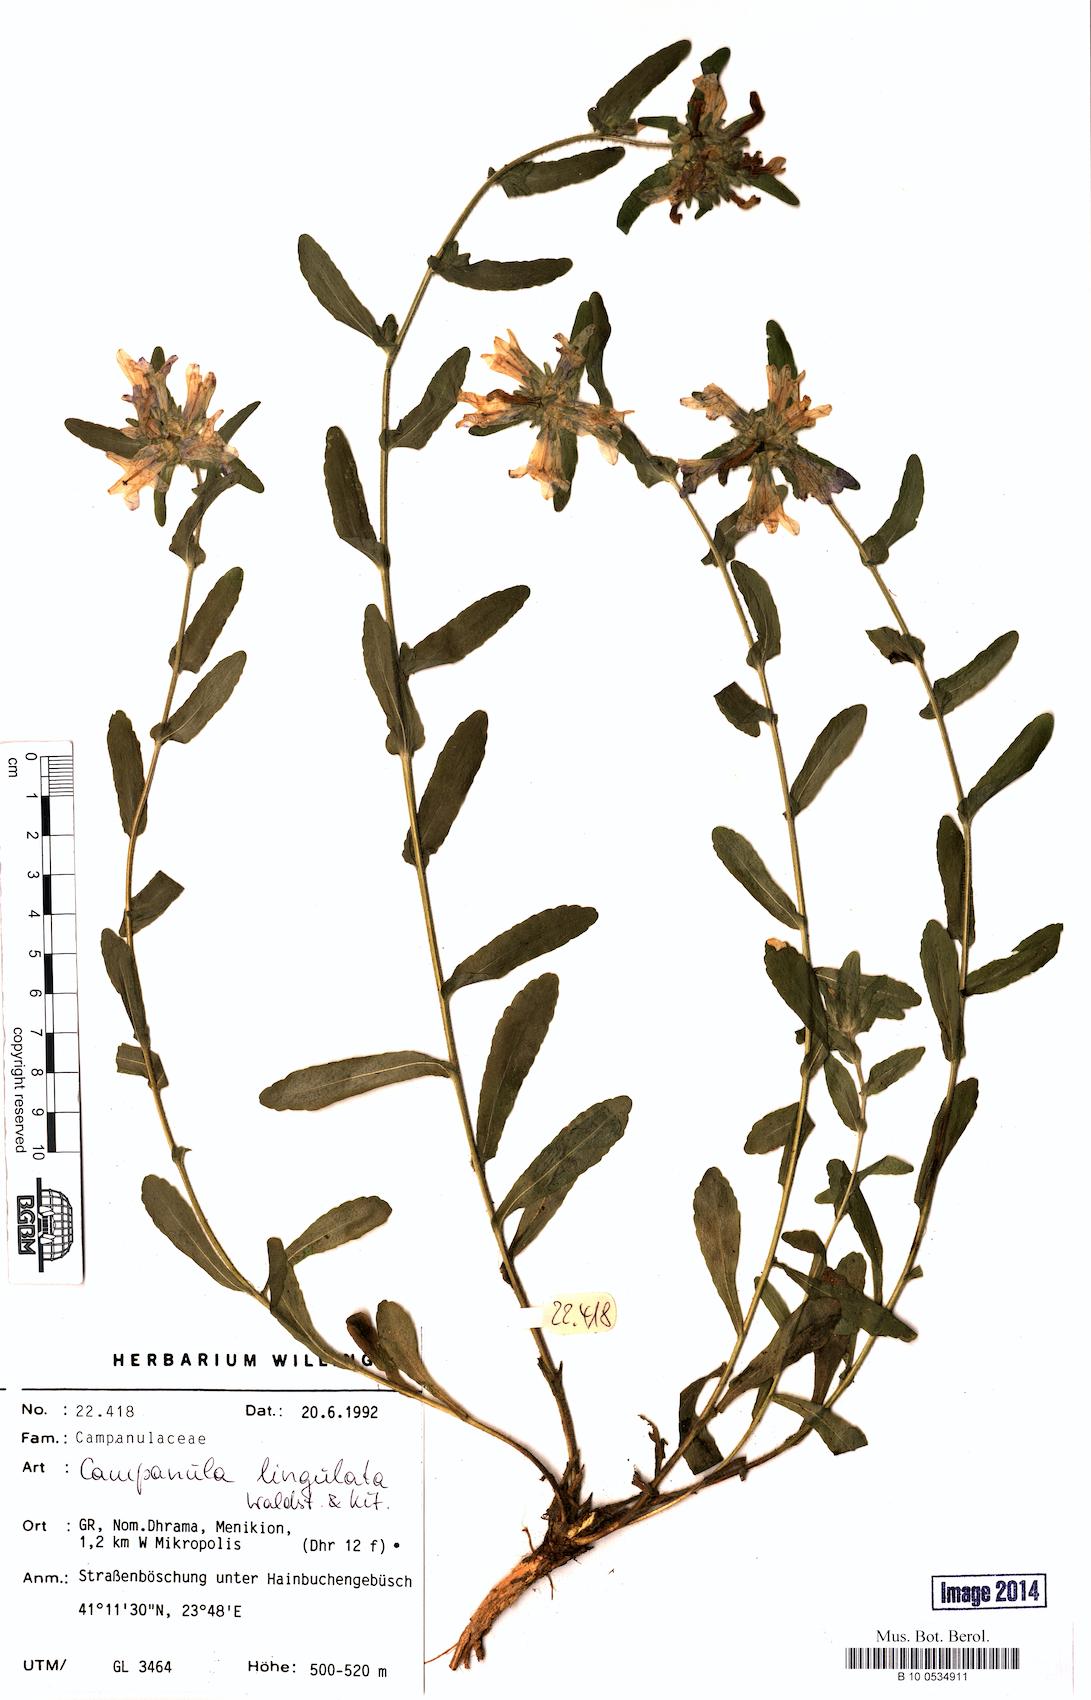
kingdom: Plantae
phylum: Tracheophyta
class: Magnoliopsida
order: Asterales
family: Campanulaceae
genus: Campanula
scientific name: Campanula lingulata
